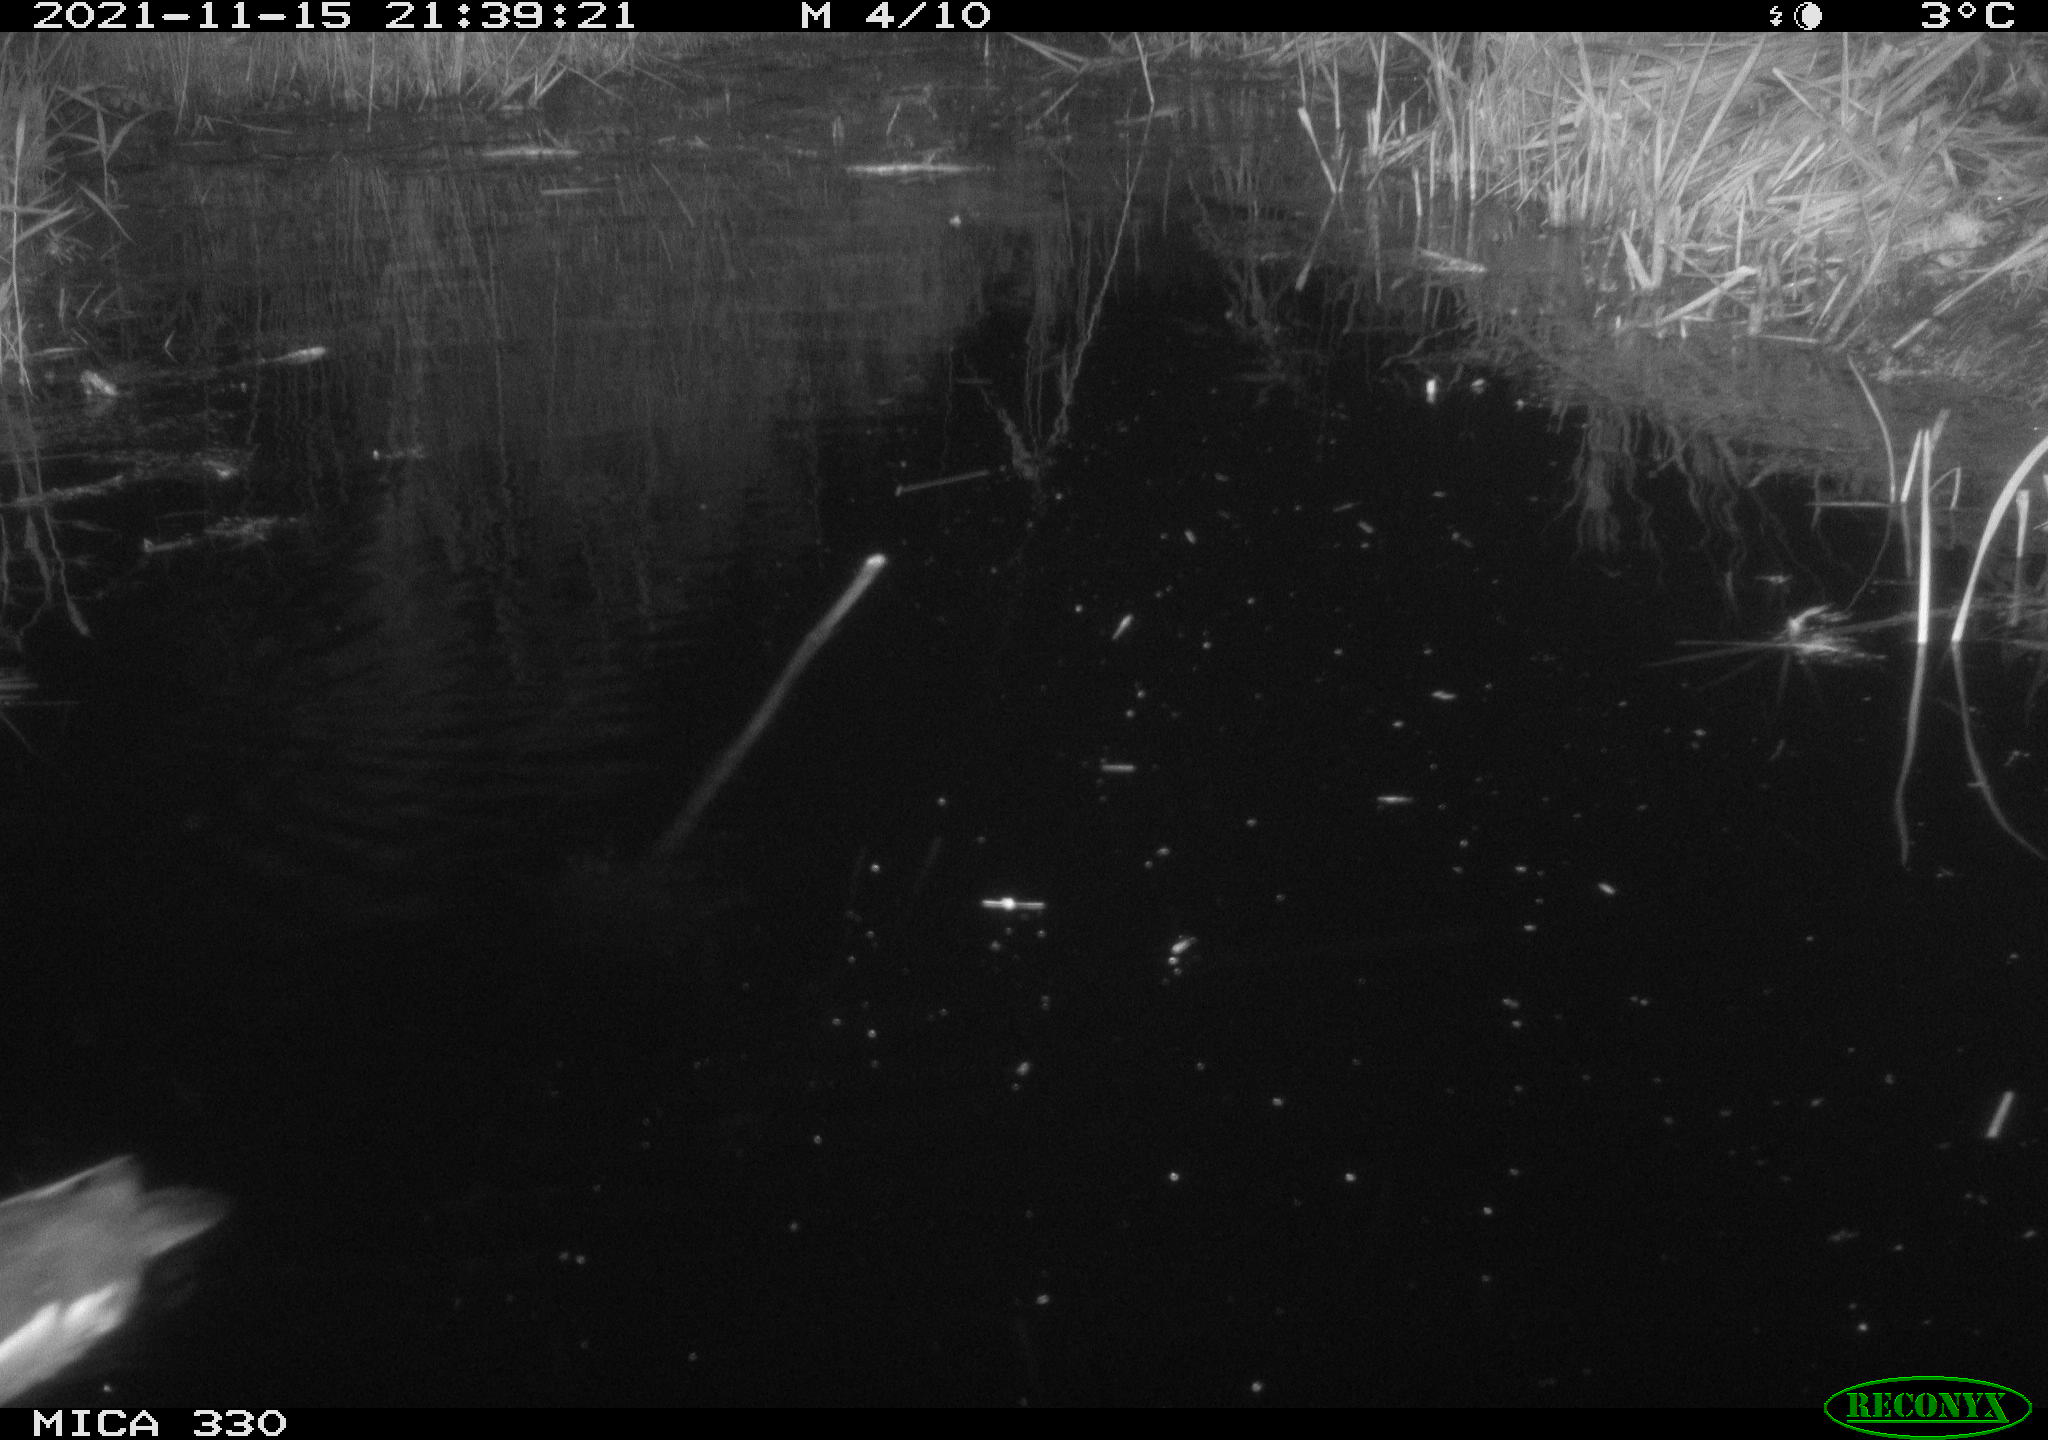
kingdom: Animalia
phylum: Chordata
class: Aves
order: Gruiformes
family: Rallidae
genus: Gallinula
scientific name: Gallinula chloropus
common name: Common moorhen
